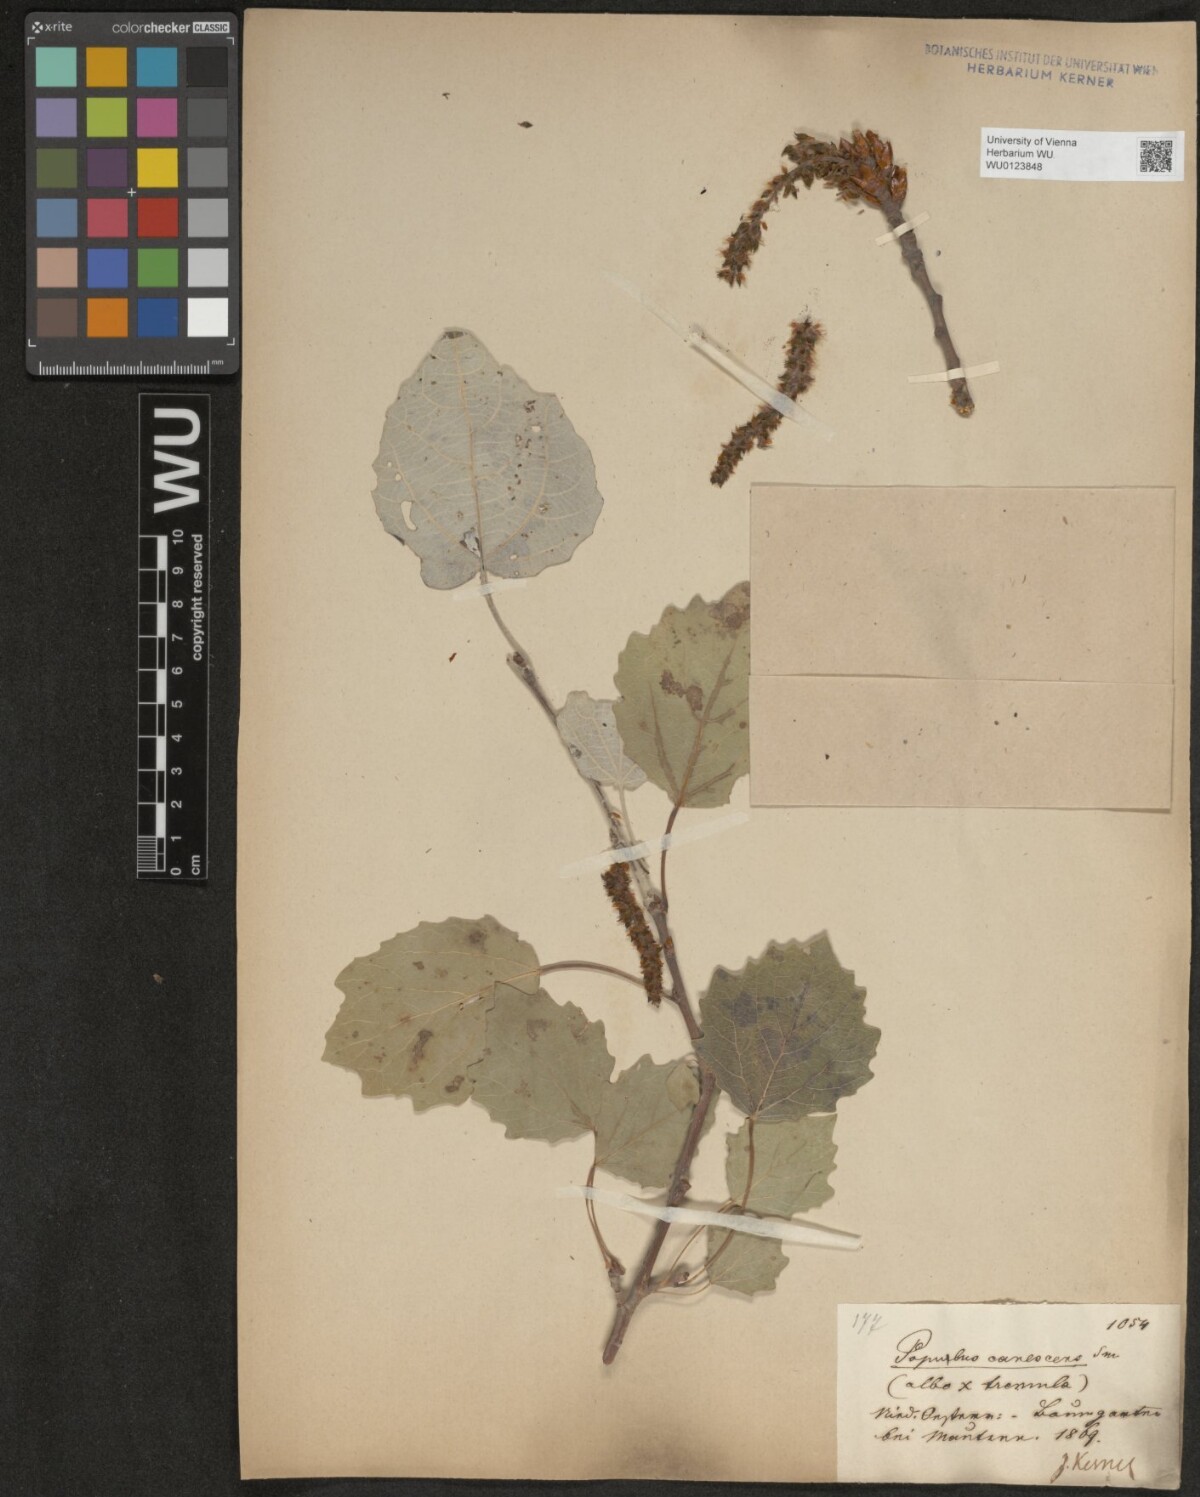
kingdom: Plantae
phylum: Tracheophyta
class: Magnoliopsida
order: Malpighiales
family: Salicaceae
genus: Populus
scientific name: Populus canescens
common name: Gray poplar
